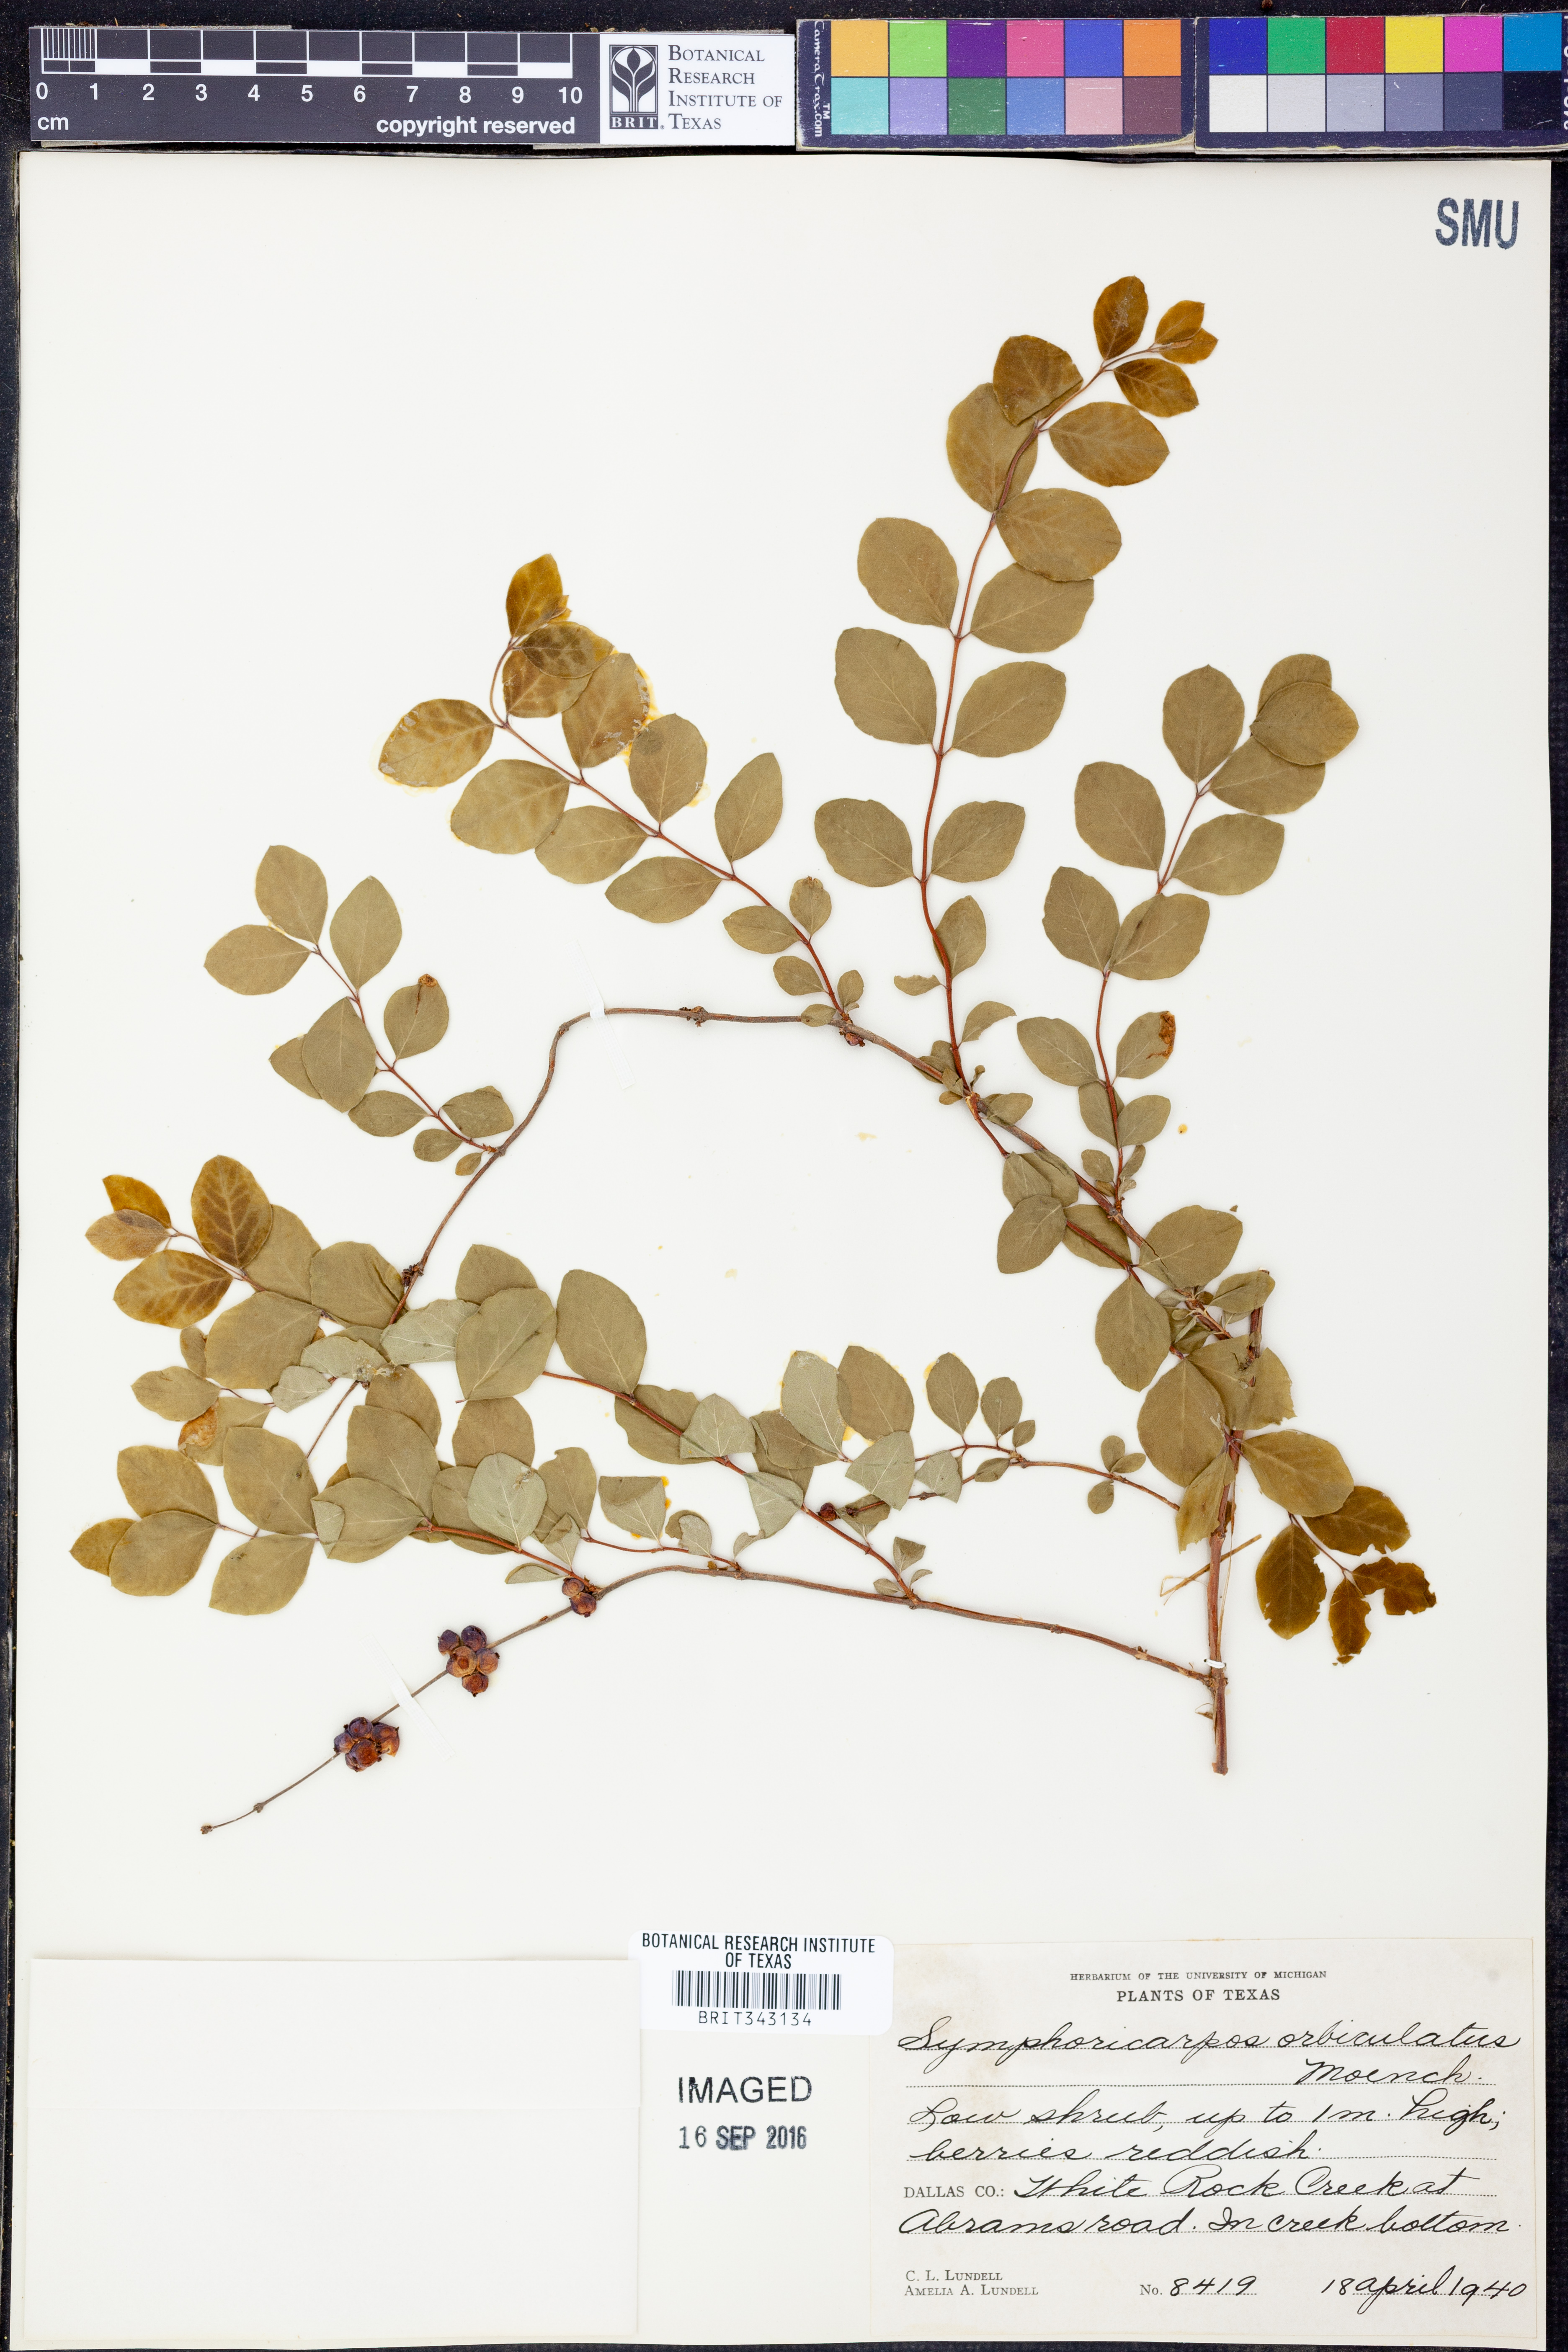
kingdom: Plantae
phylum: Tracheophyta
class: Magnoliopsida
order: Dipsacales
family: Caprifoliaceae
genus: Symphoricarpos
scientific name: Symphoricarpos orbiculatus
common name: Coralberry
